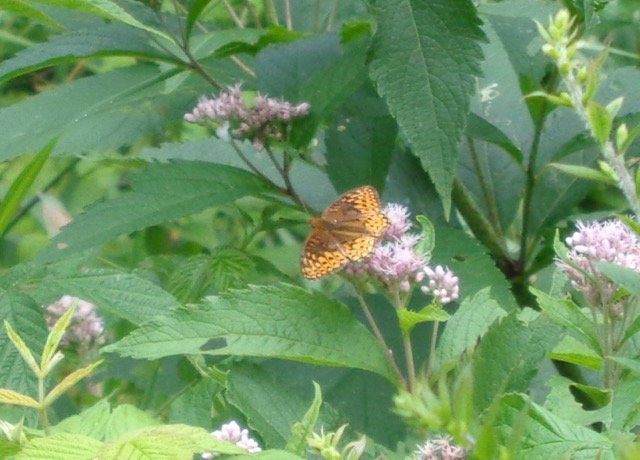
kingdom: Animalia
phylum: Arthropoda
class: Insecta
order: Lepidoptera
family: Nymphalidae
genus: Speyeria
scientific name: Speyeria atlantis
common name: Atlantis Fritillary
